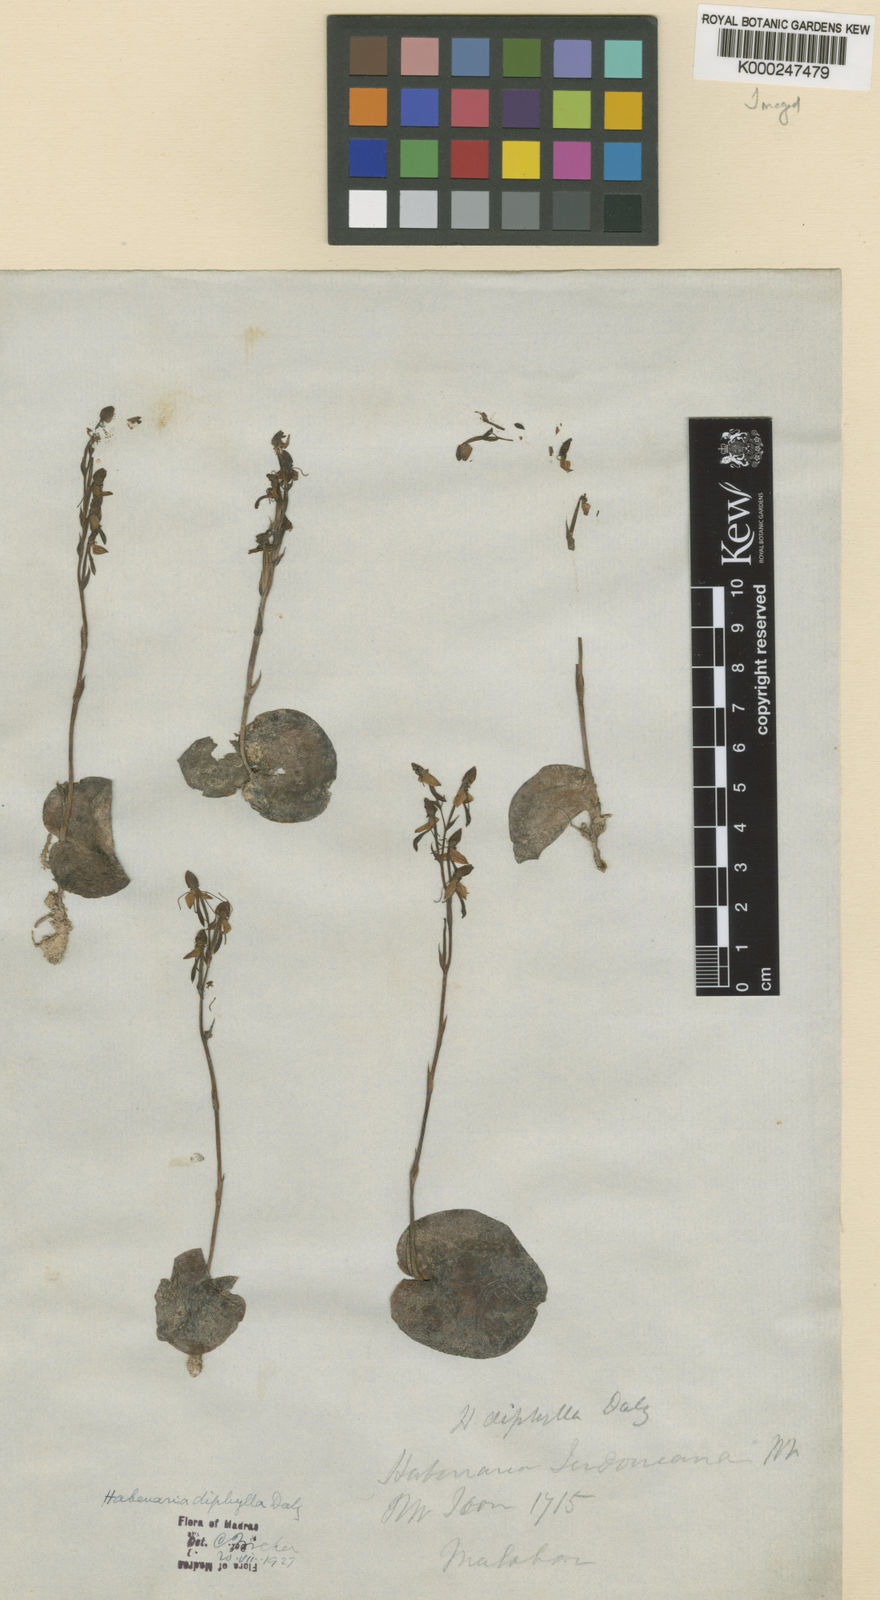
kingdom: Plantae
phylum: Tracheophyta
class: Liliopsida
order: Asparagales
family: Orchidaceae
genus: Habenaria
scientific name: Habenaria diphylla
